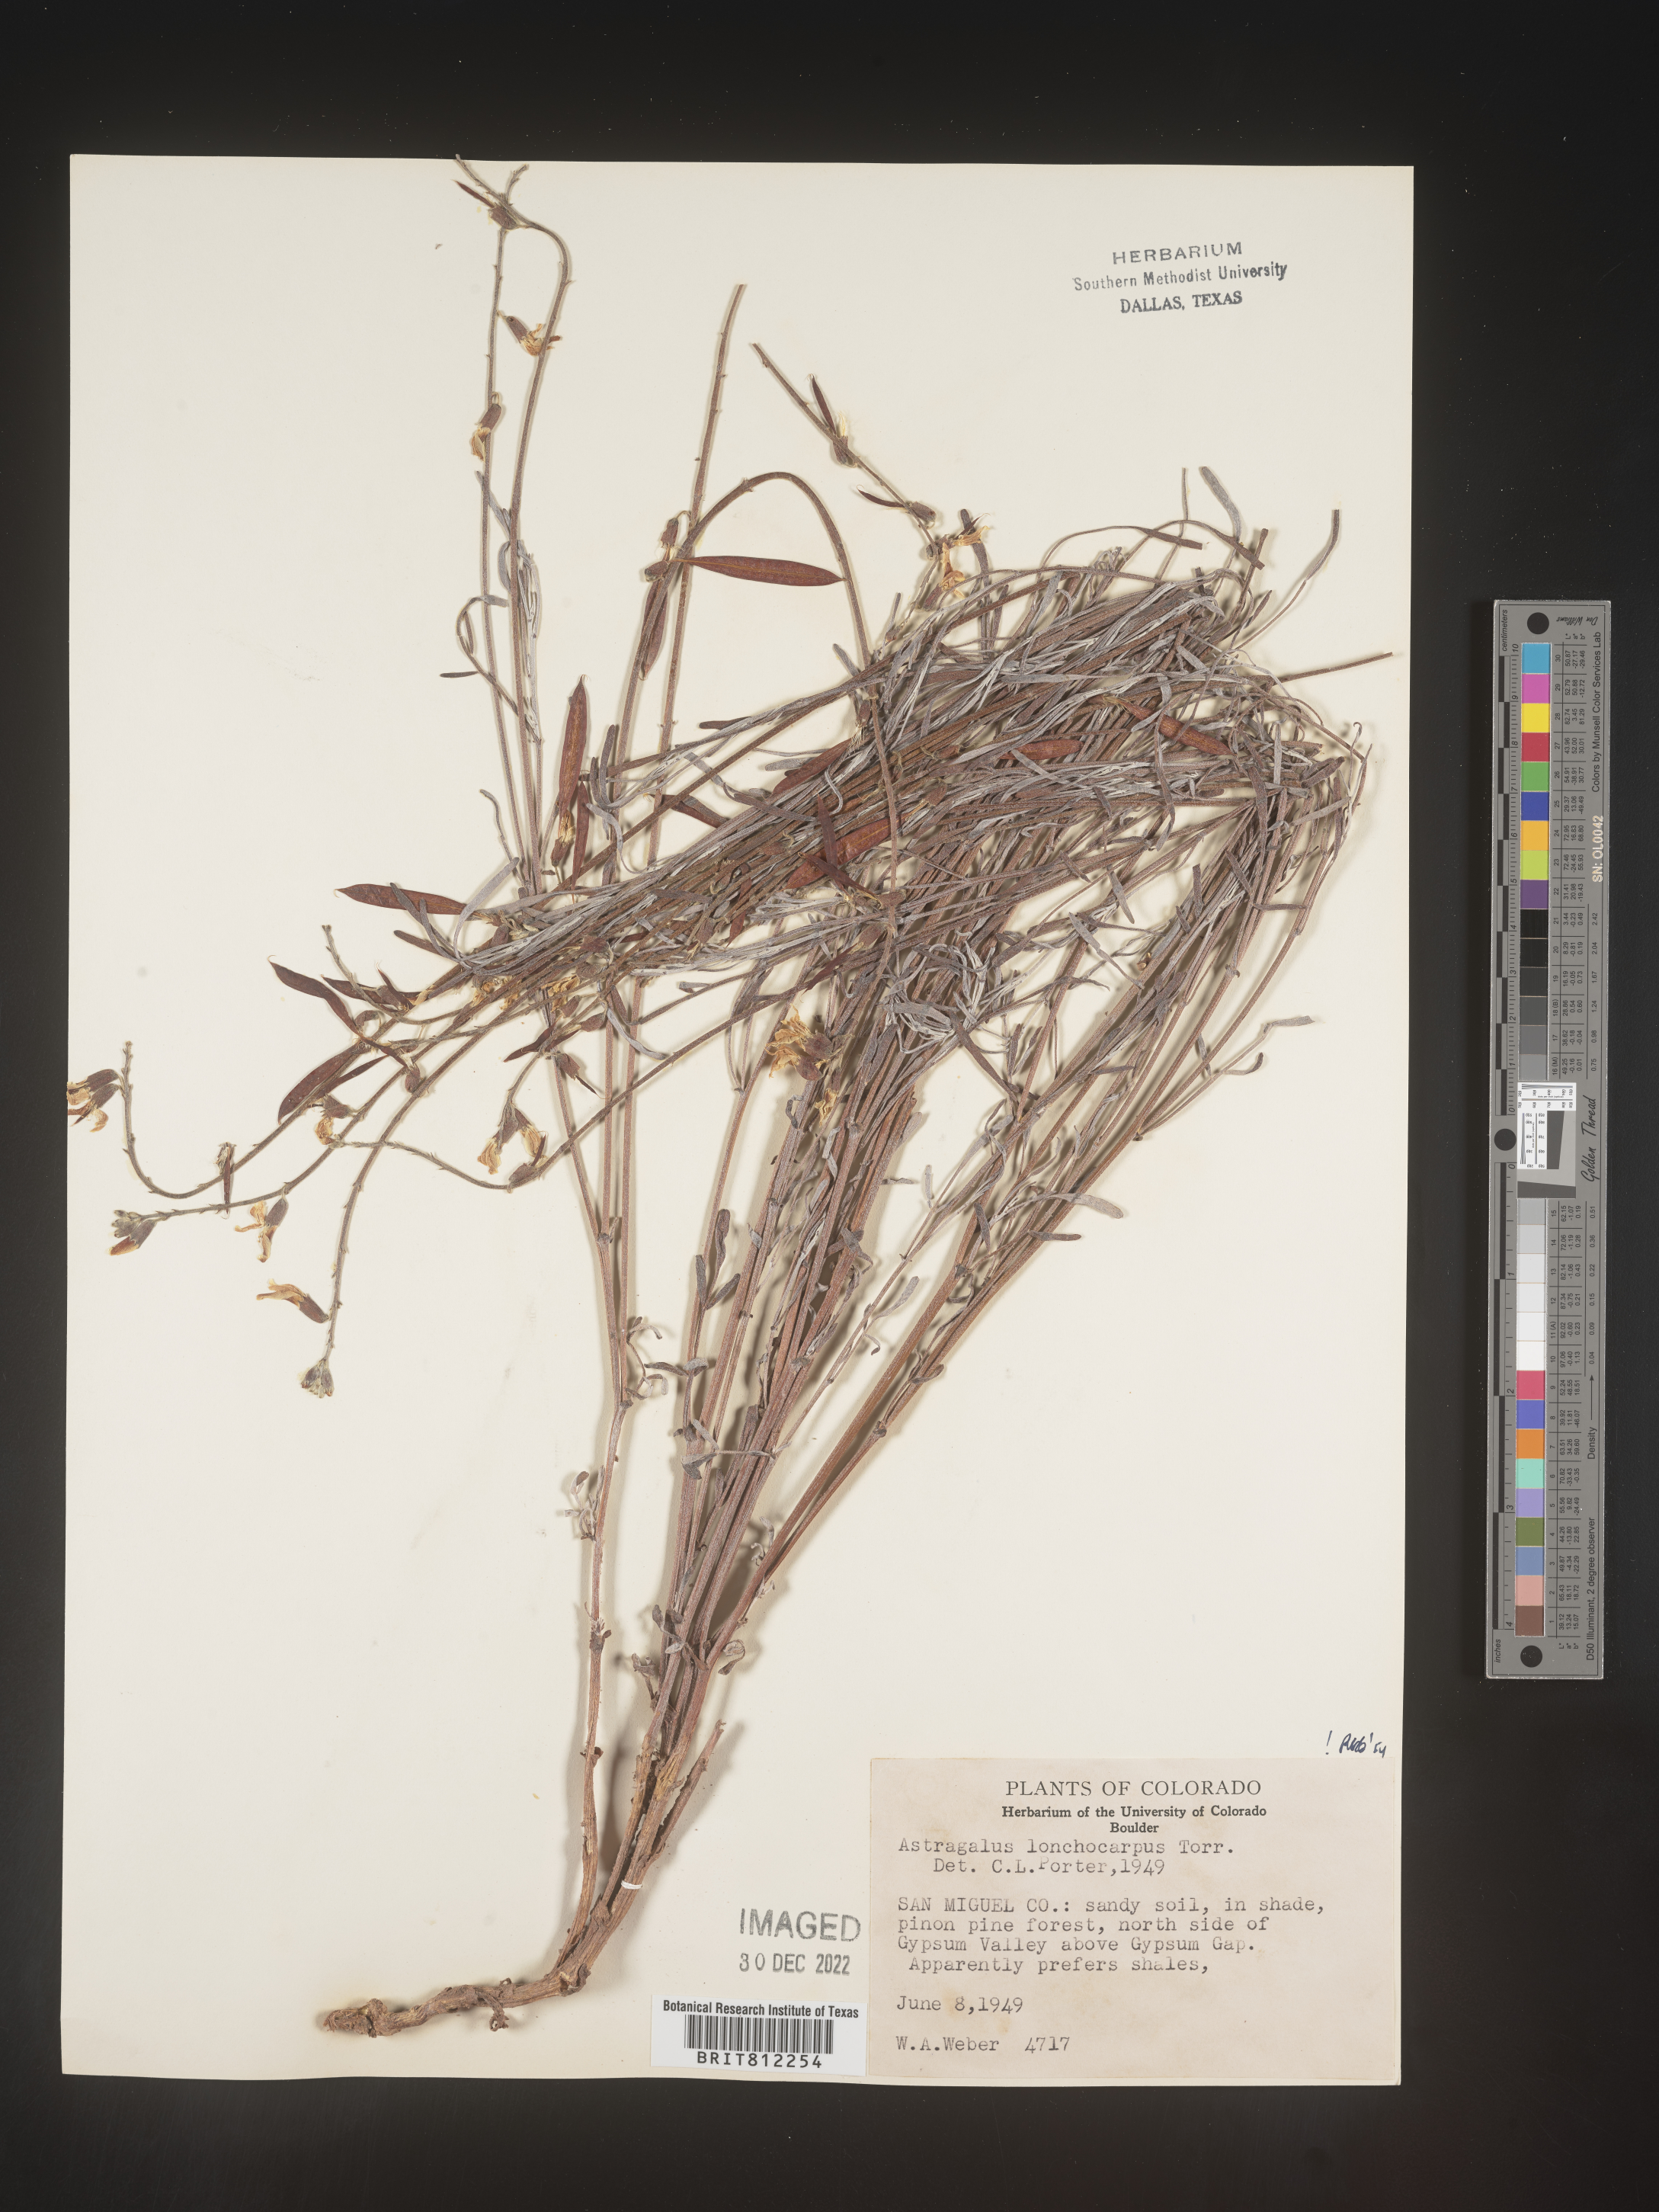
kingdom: Plantae
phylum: Tracheophyta
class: Magnoliopsida
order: Fabales
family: Fabaceae
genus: Astragalus
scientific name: Astragalus lonchocarpus
